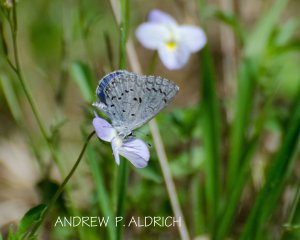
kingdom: Animalia
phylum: Arthropoda
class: Insecta
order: Lepidoptera
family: Lycaenidae
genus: Celastrina
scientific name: Celastrina ladon
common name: Spring Azure
